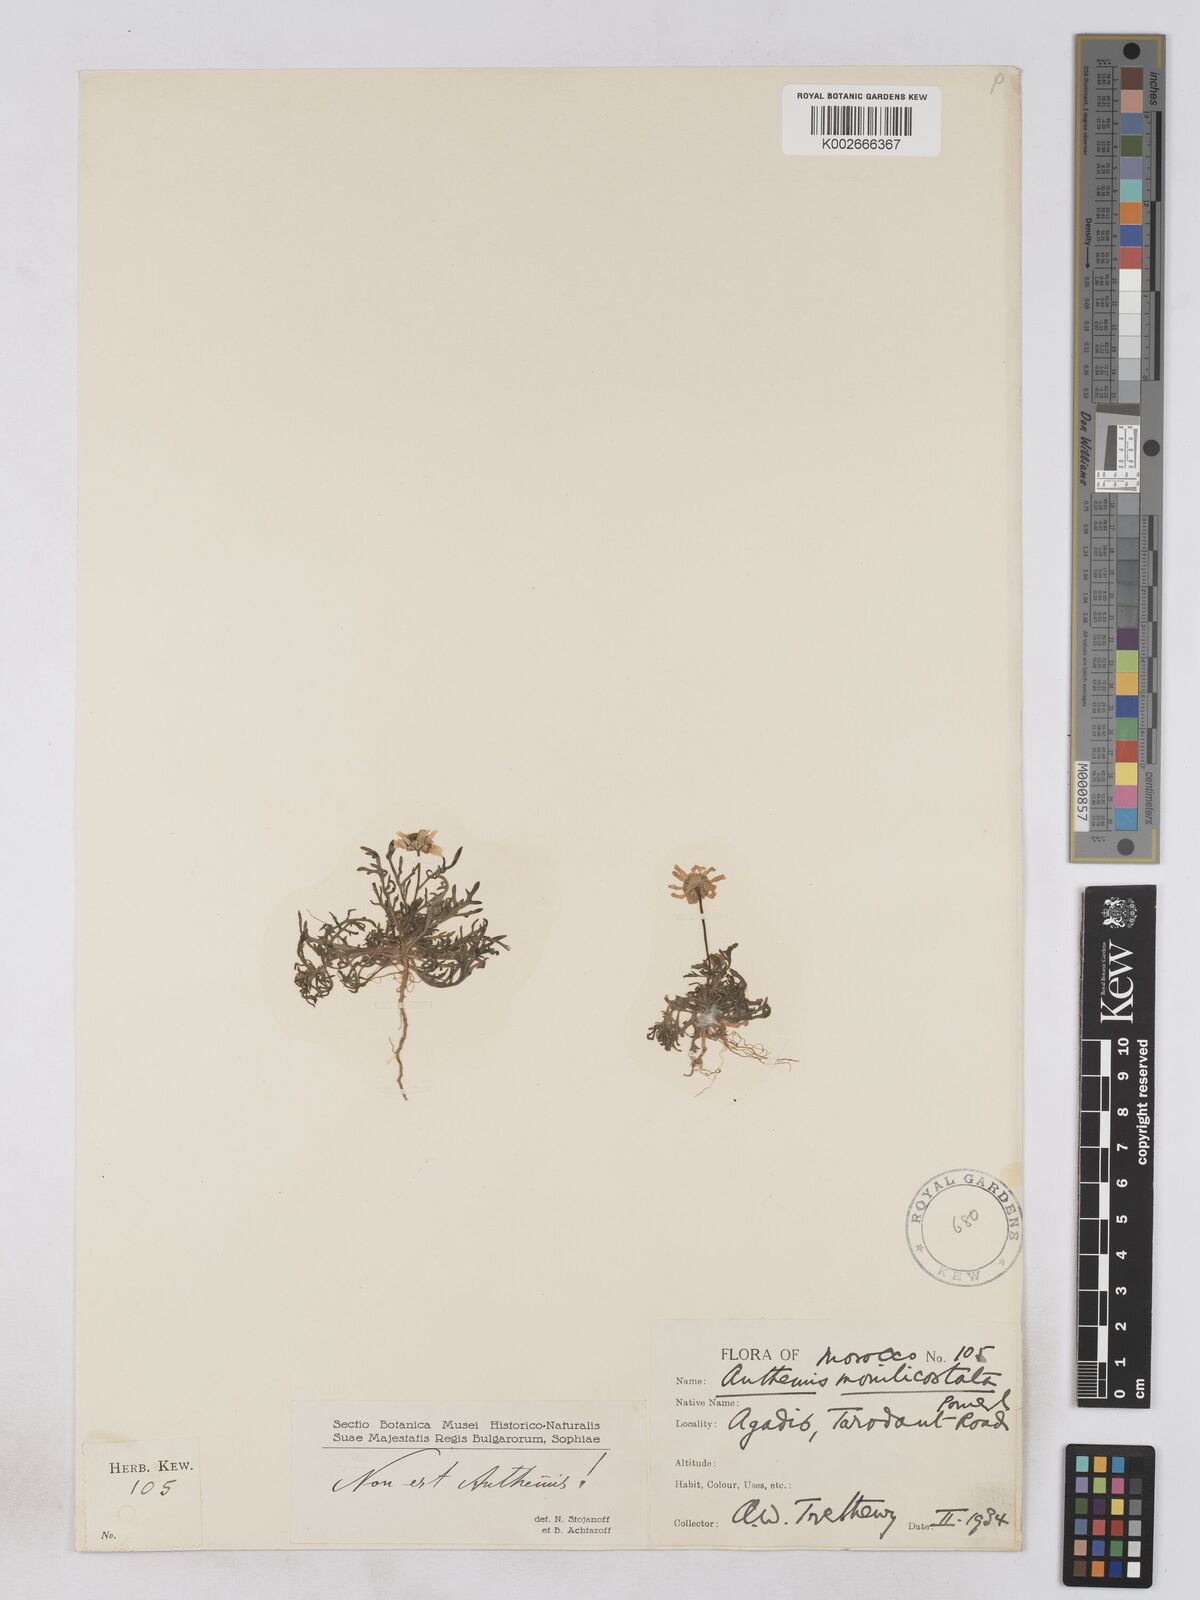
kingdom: Plantae
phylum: Tracheophyta
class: Magnoliopsida
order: Asterales
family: Asteraceae
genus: Otoglyphis
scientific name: Otoglyphis pubescens
